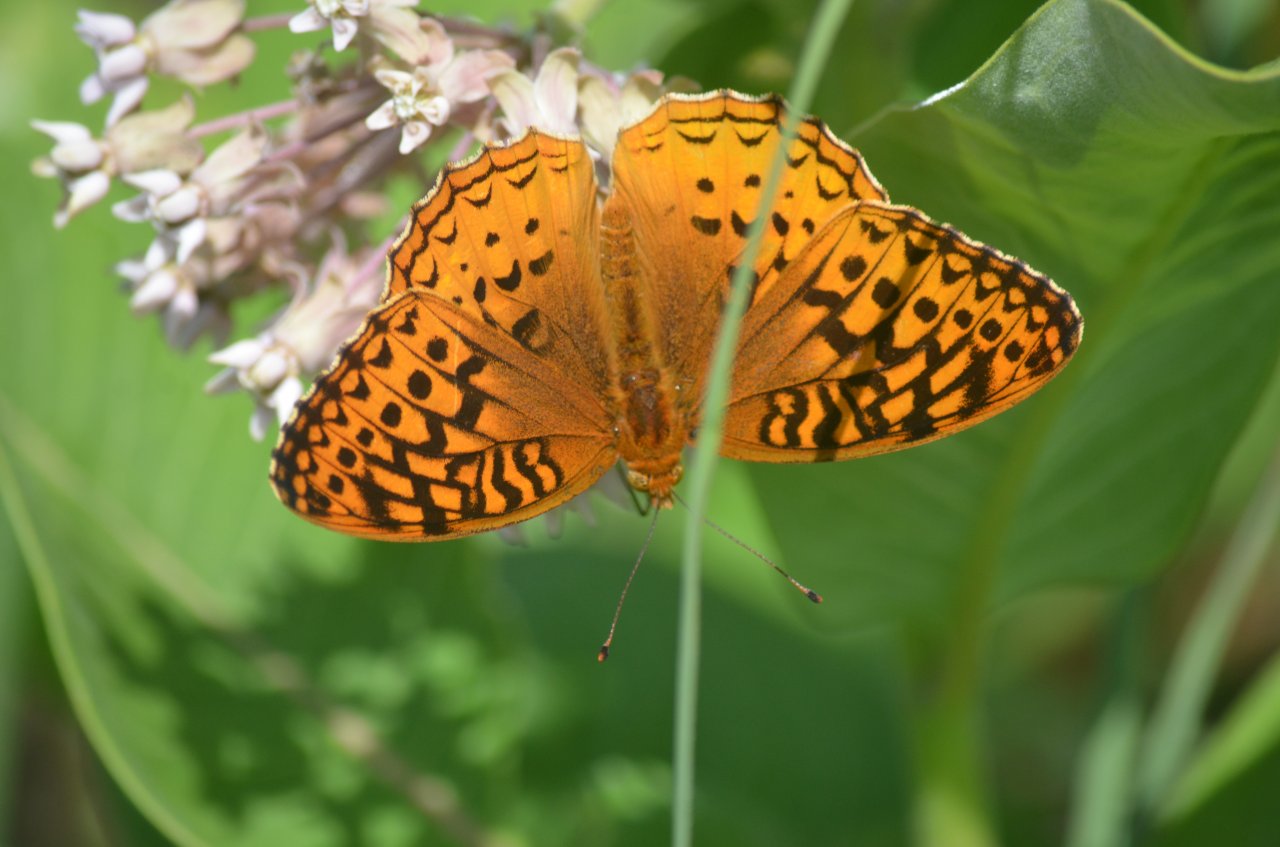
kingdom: Animalia
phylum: Arthropoda
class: Insecta
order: Lepidoptera
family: Nymphalidae
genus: Speyeria
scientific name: Speyeria cybele
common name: Great Spangled Fritillary
